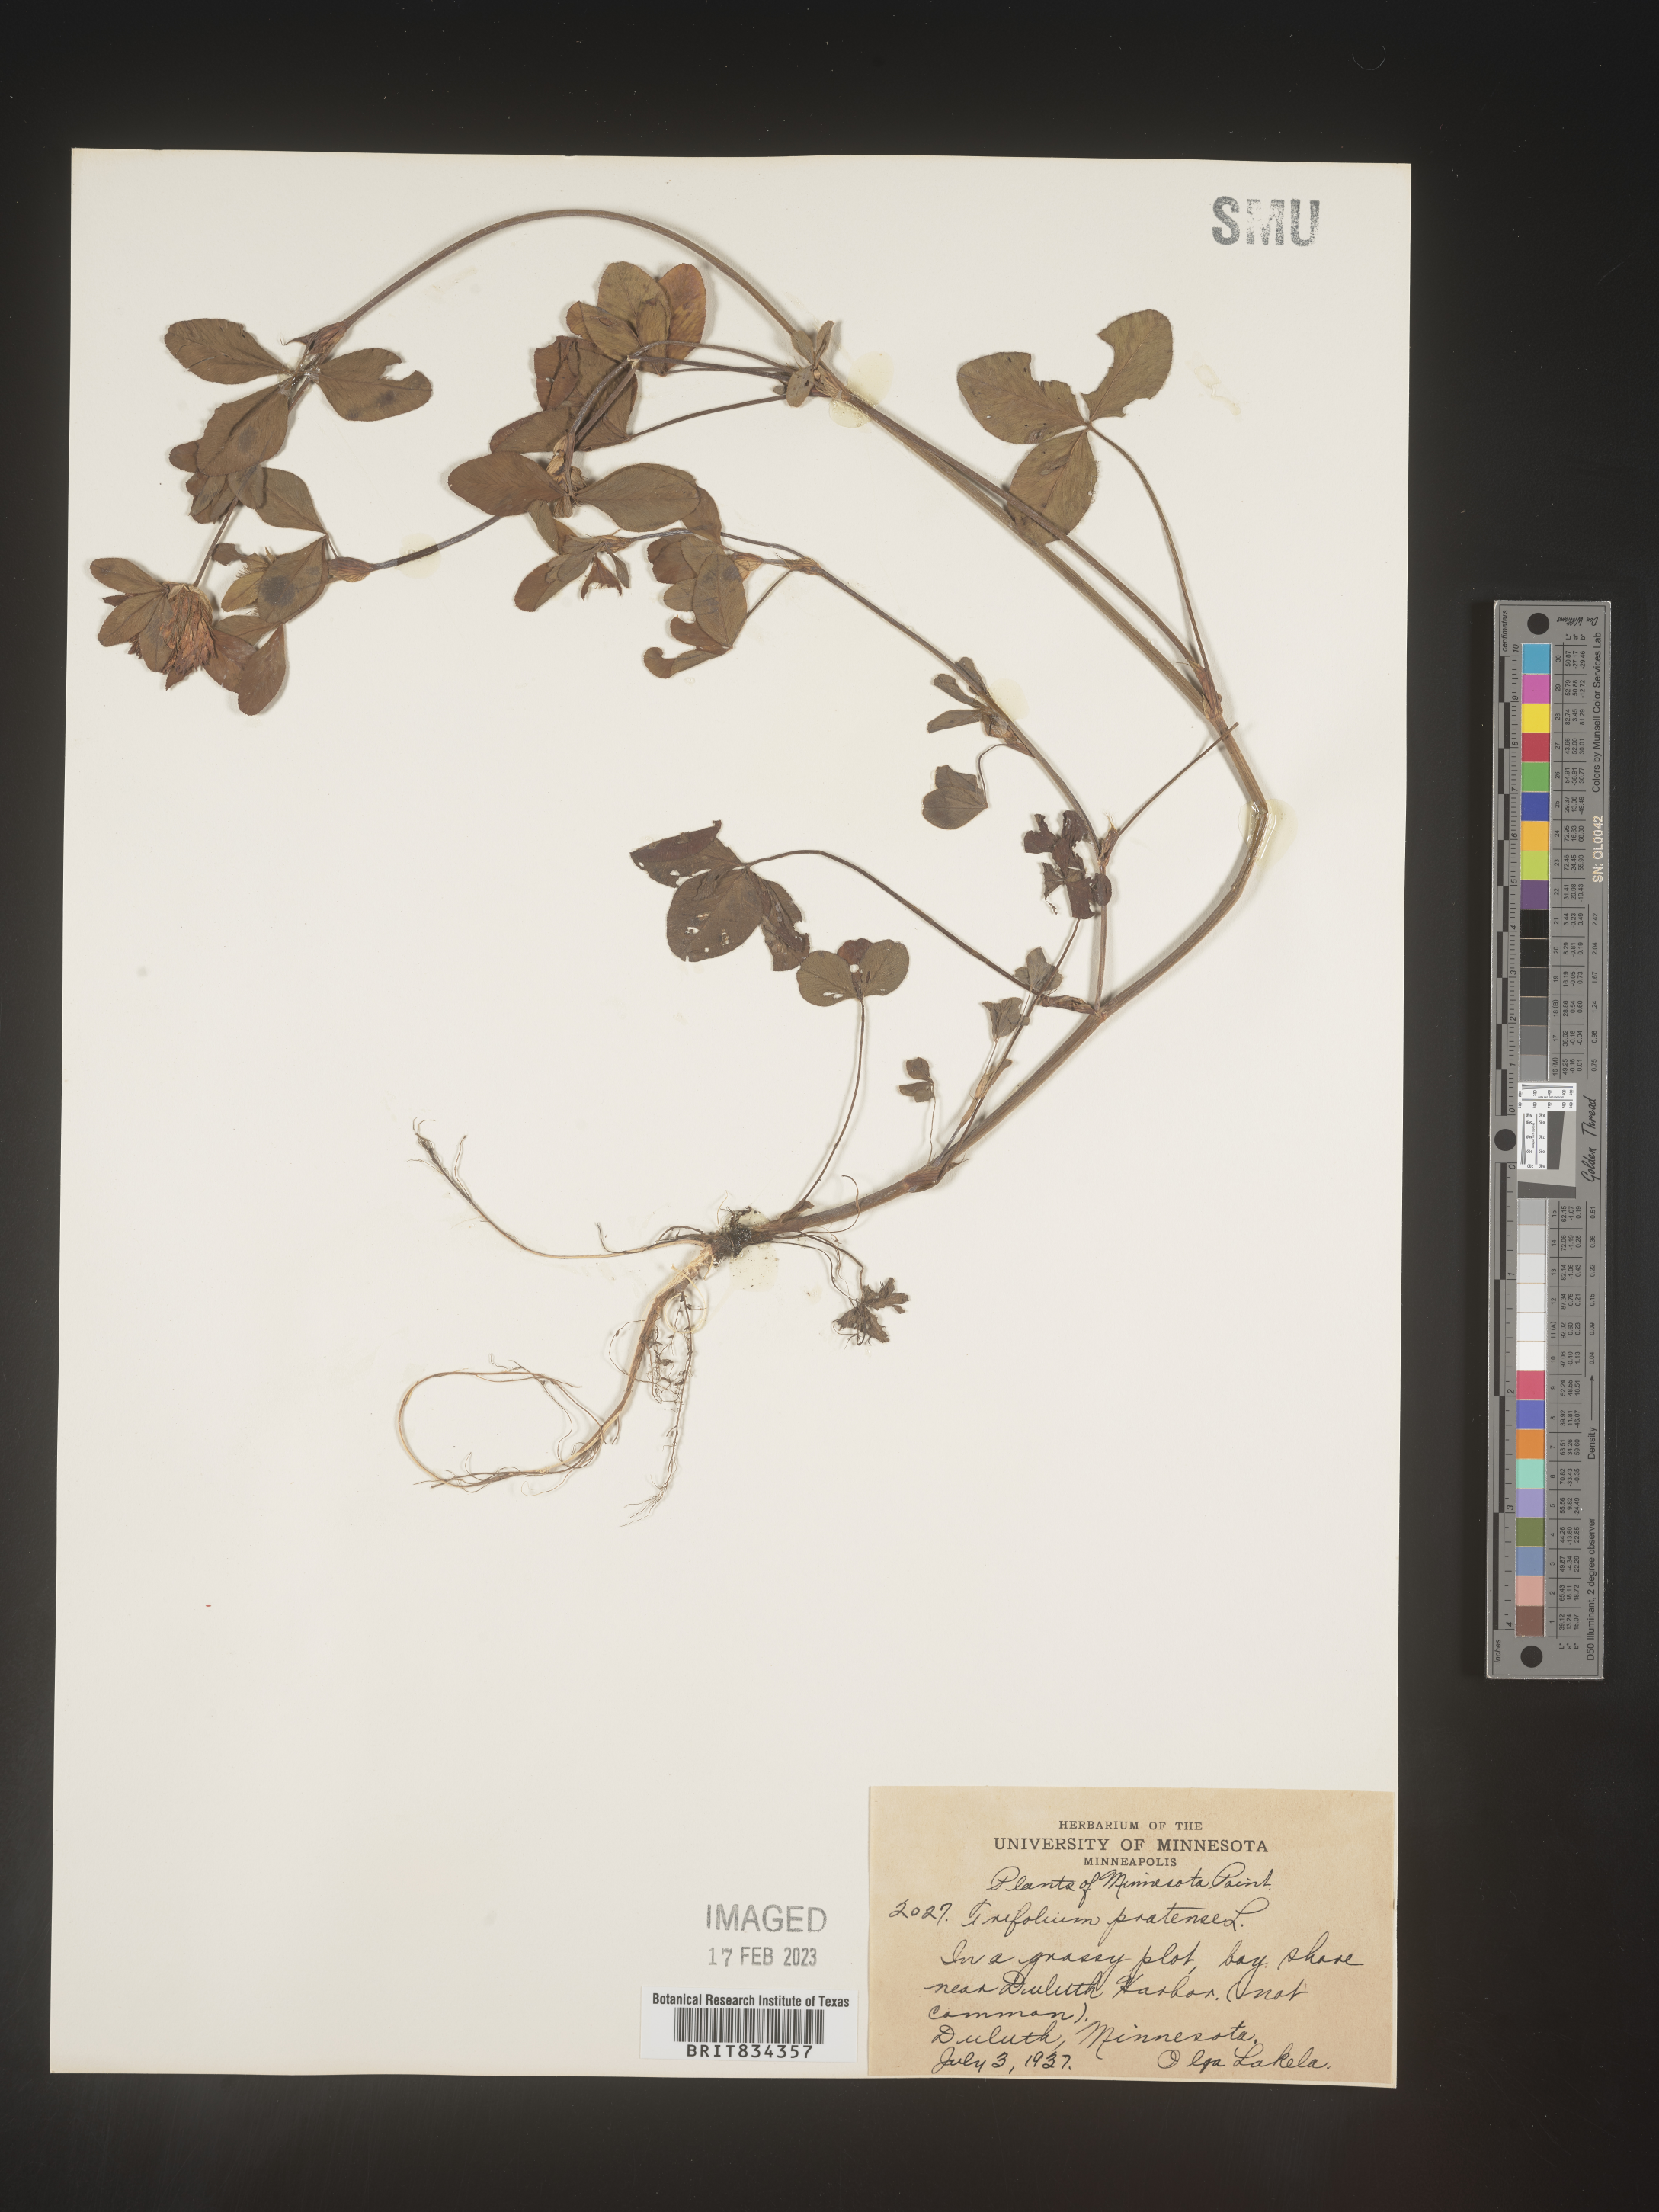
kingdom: Plantae
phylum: Tracheophyta
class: Magnoliopsida
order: Fabales
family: Fabaceae
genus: Trifolium
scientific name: Trifolium pratense
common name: Red clover
